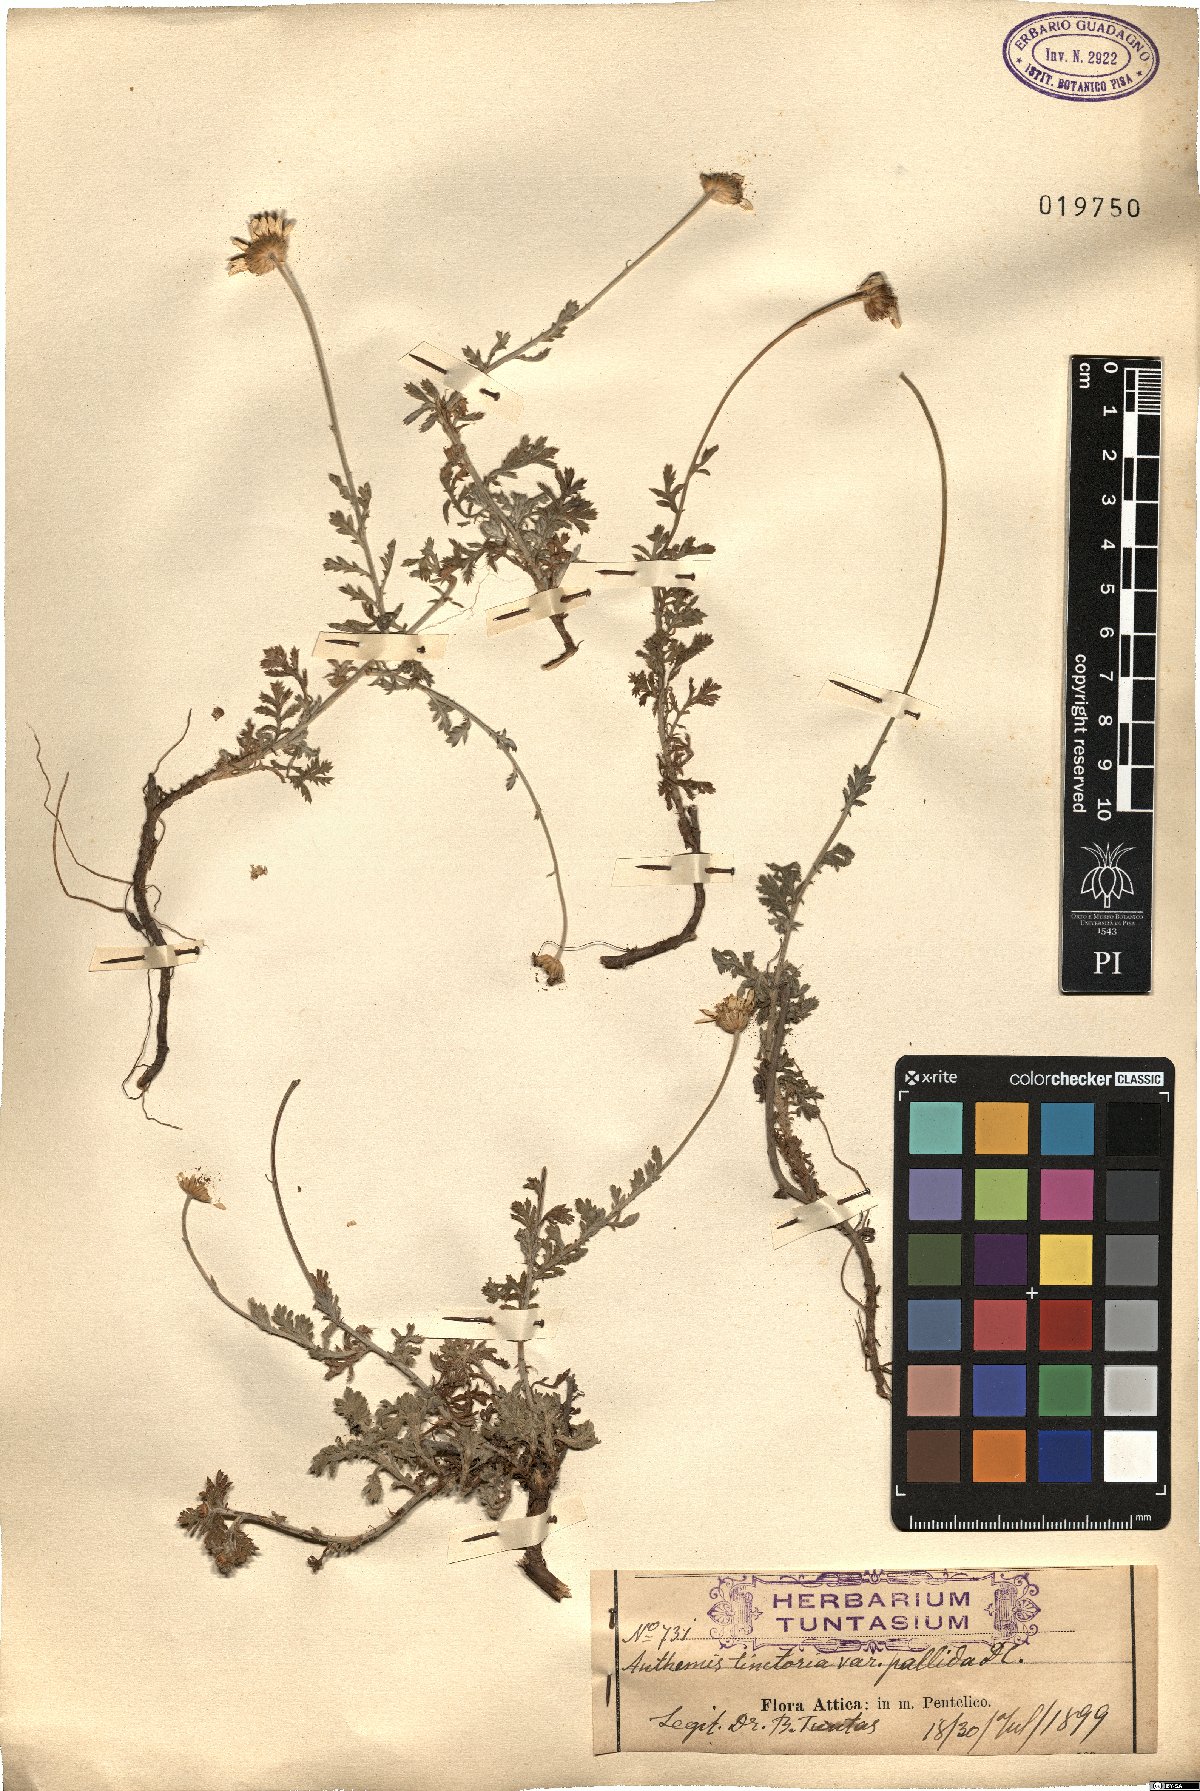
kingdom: Plantae
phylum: Tracheophyta
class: Magnoliopsida
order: Asterales
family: Asteraceae
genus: Cota
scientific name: Cota tinctoria
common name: Golden chamomile
